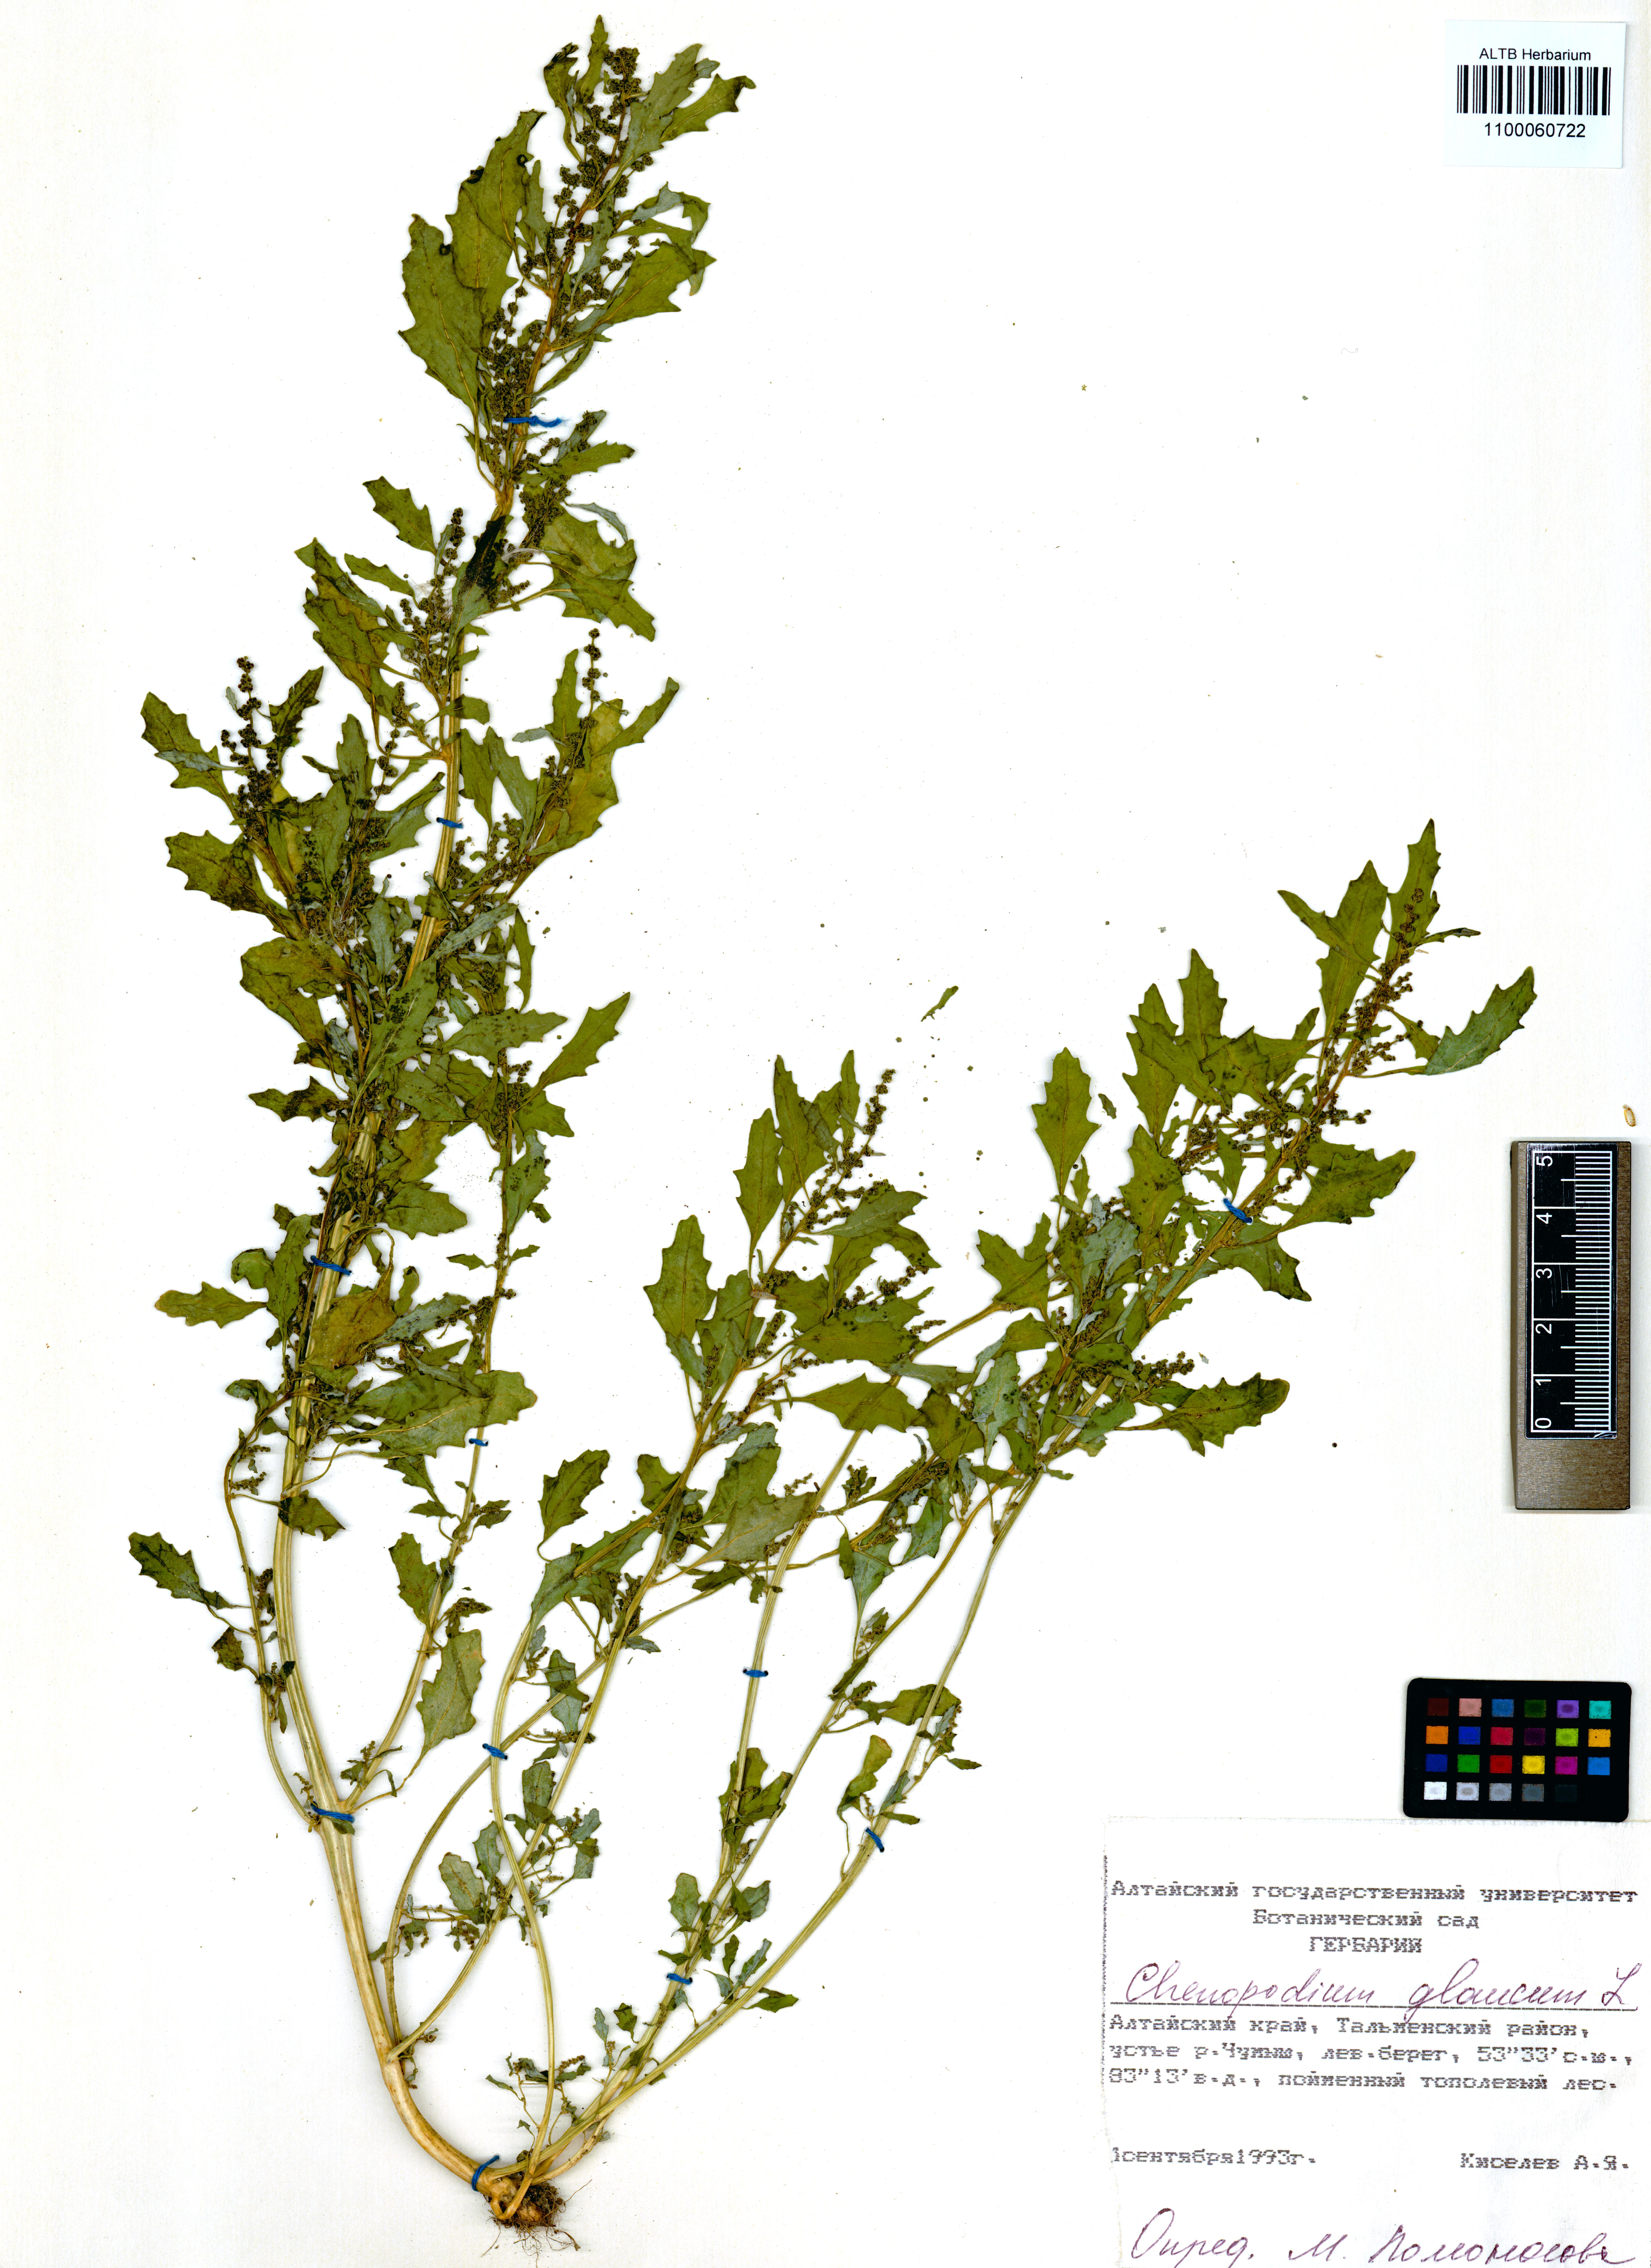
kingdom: Plantae
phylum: Tracheophyta
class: Magnoliopsida
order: Caryophyllales
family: Amaranthaceae
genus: Oxybasis
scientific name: Oxybasis glauca
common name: Glaucous goosefoot
